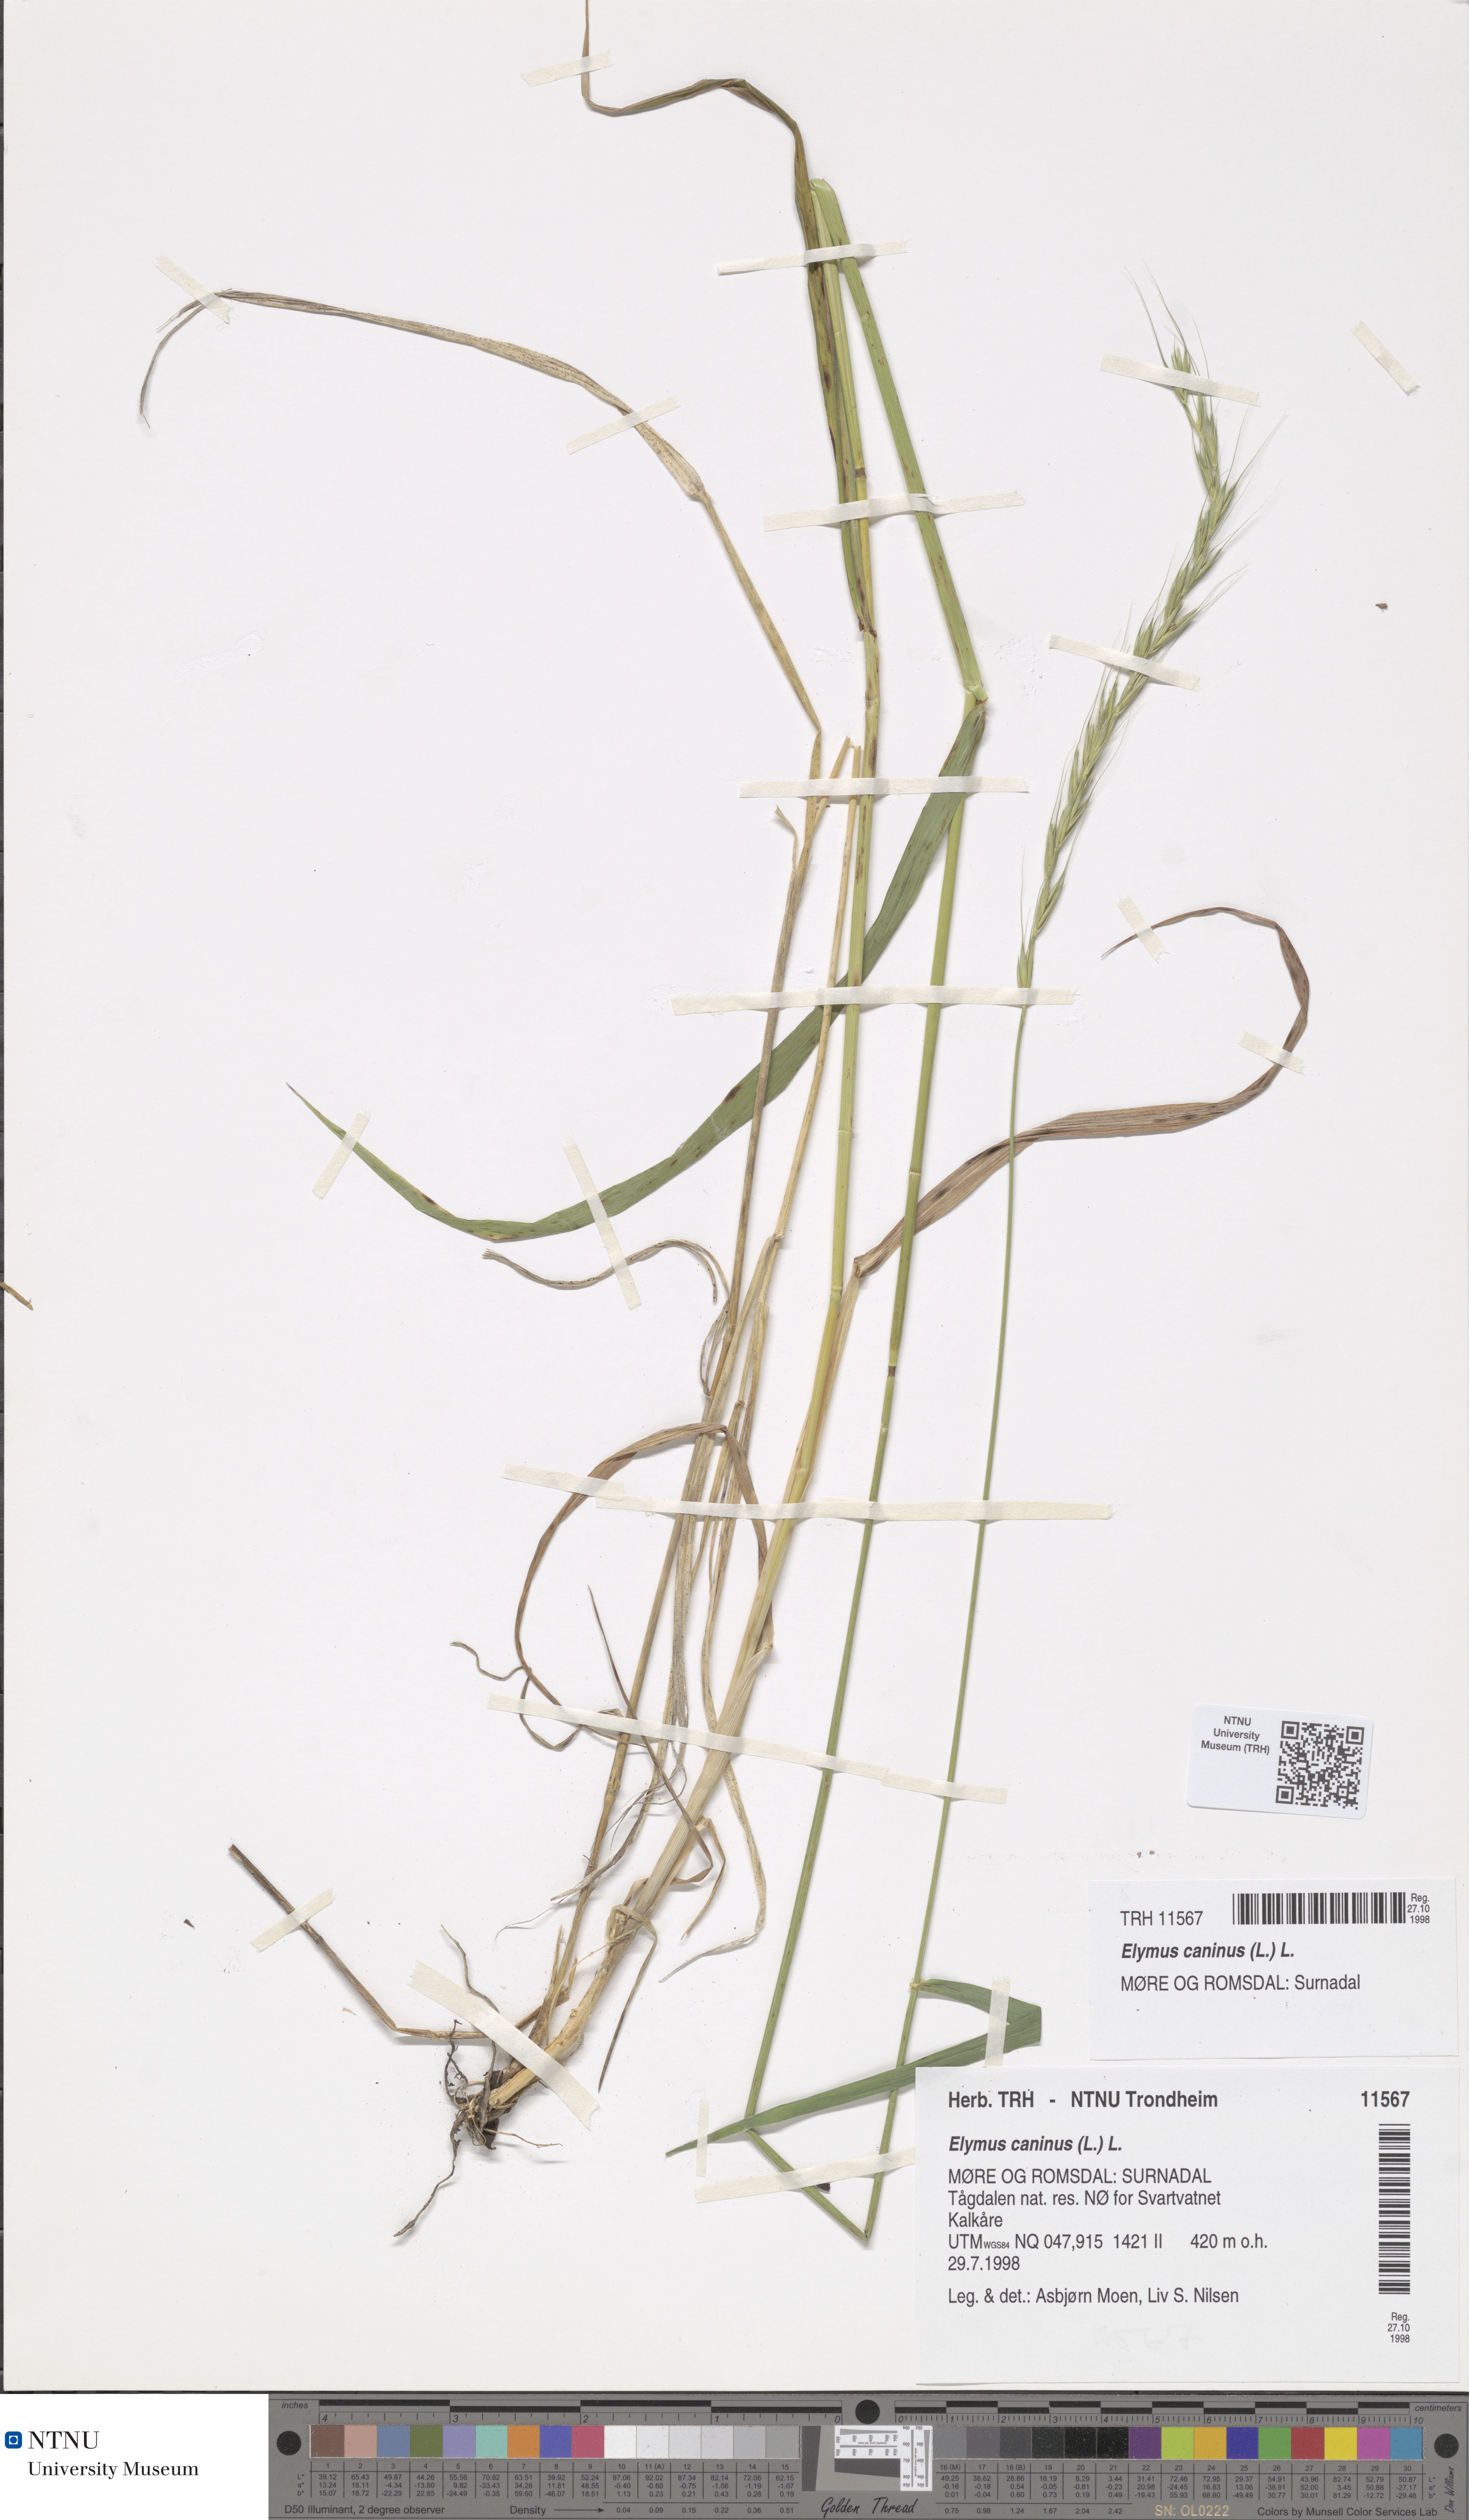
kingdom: Plantae
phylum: Tracheophyta
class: Liliopsida
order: Poales
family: Poaceae
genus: Elymus
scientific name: Elymus caninus
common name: Bearded couch
